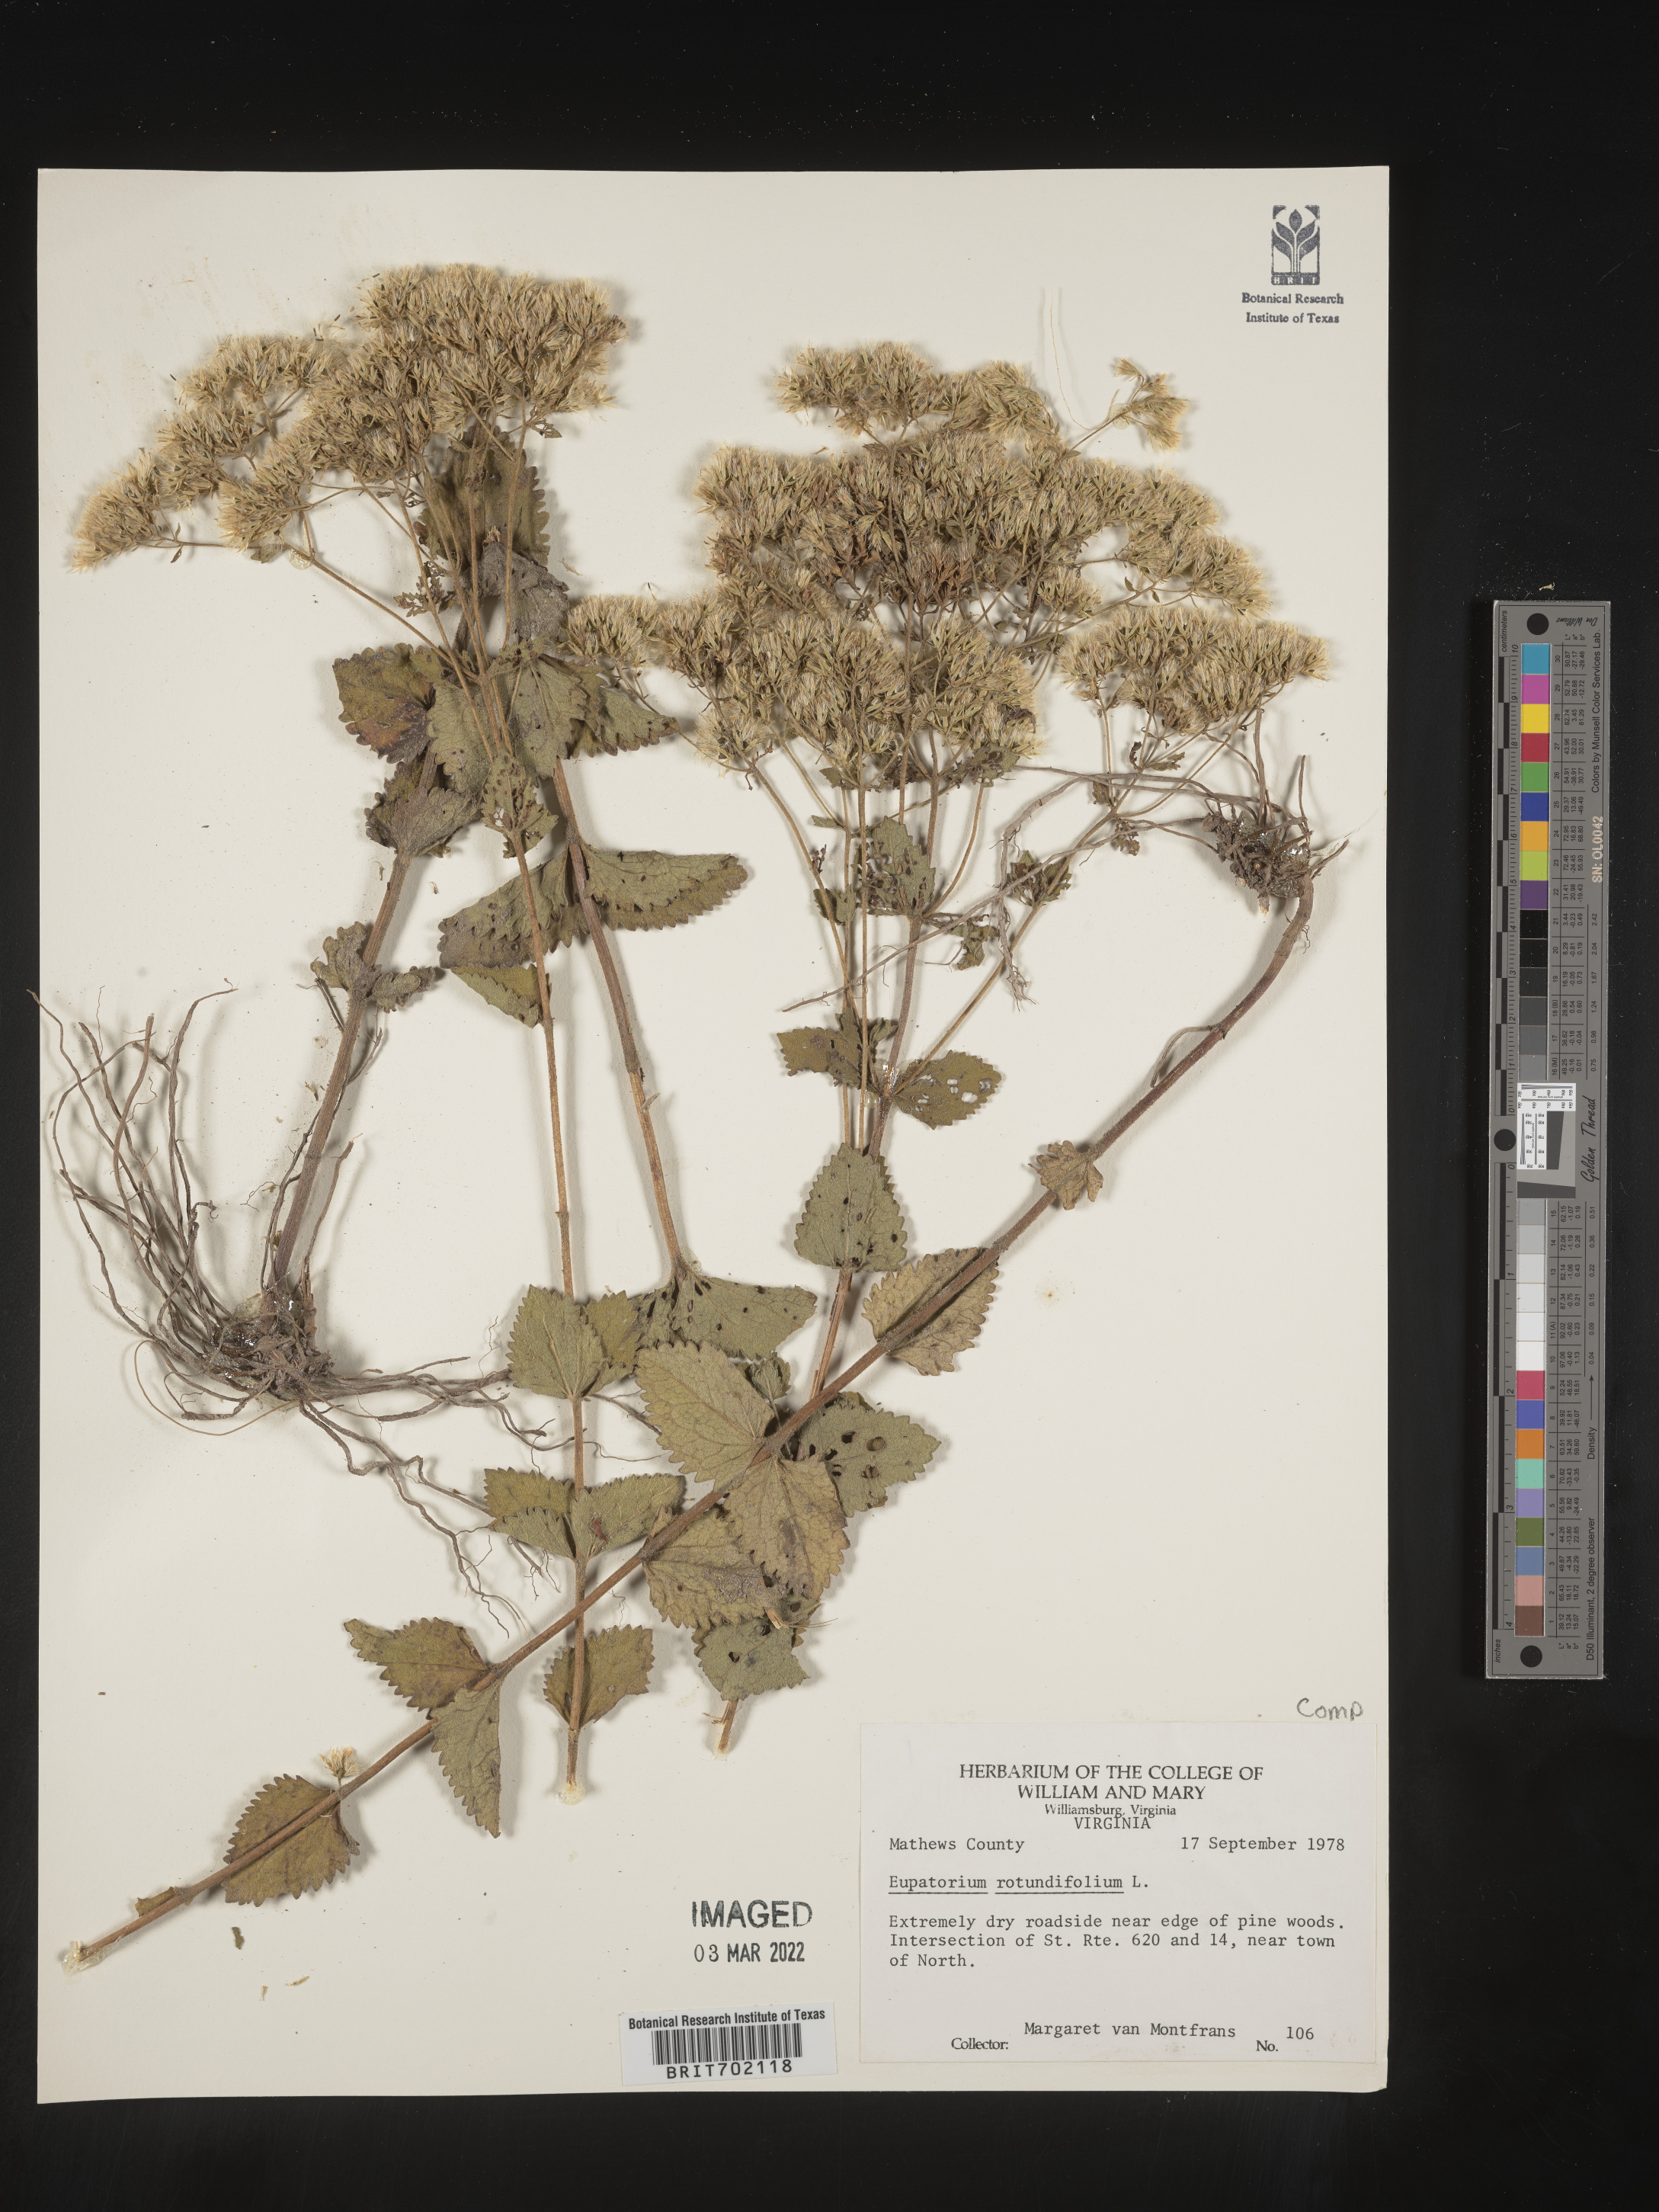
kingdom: Plantae
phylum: Tracheophyta
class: Magnoliopsida
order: Asterales
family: Asteraceae
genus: Eupatorium
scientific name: Eupatorium rotundifolium
